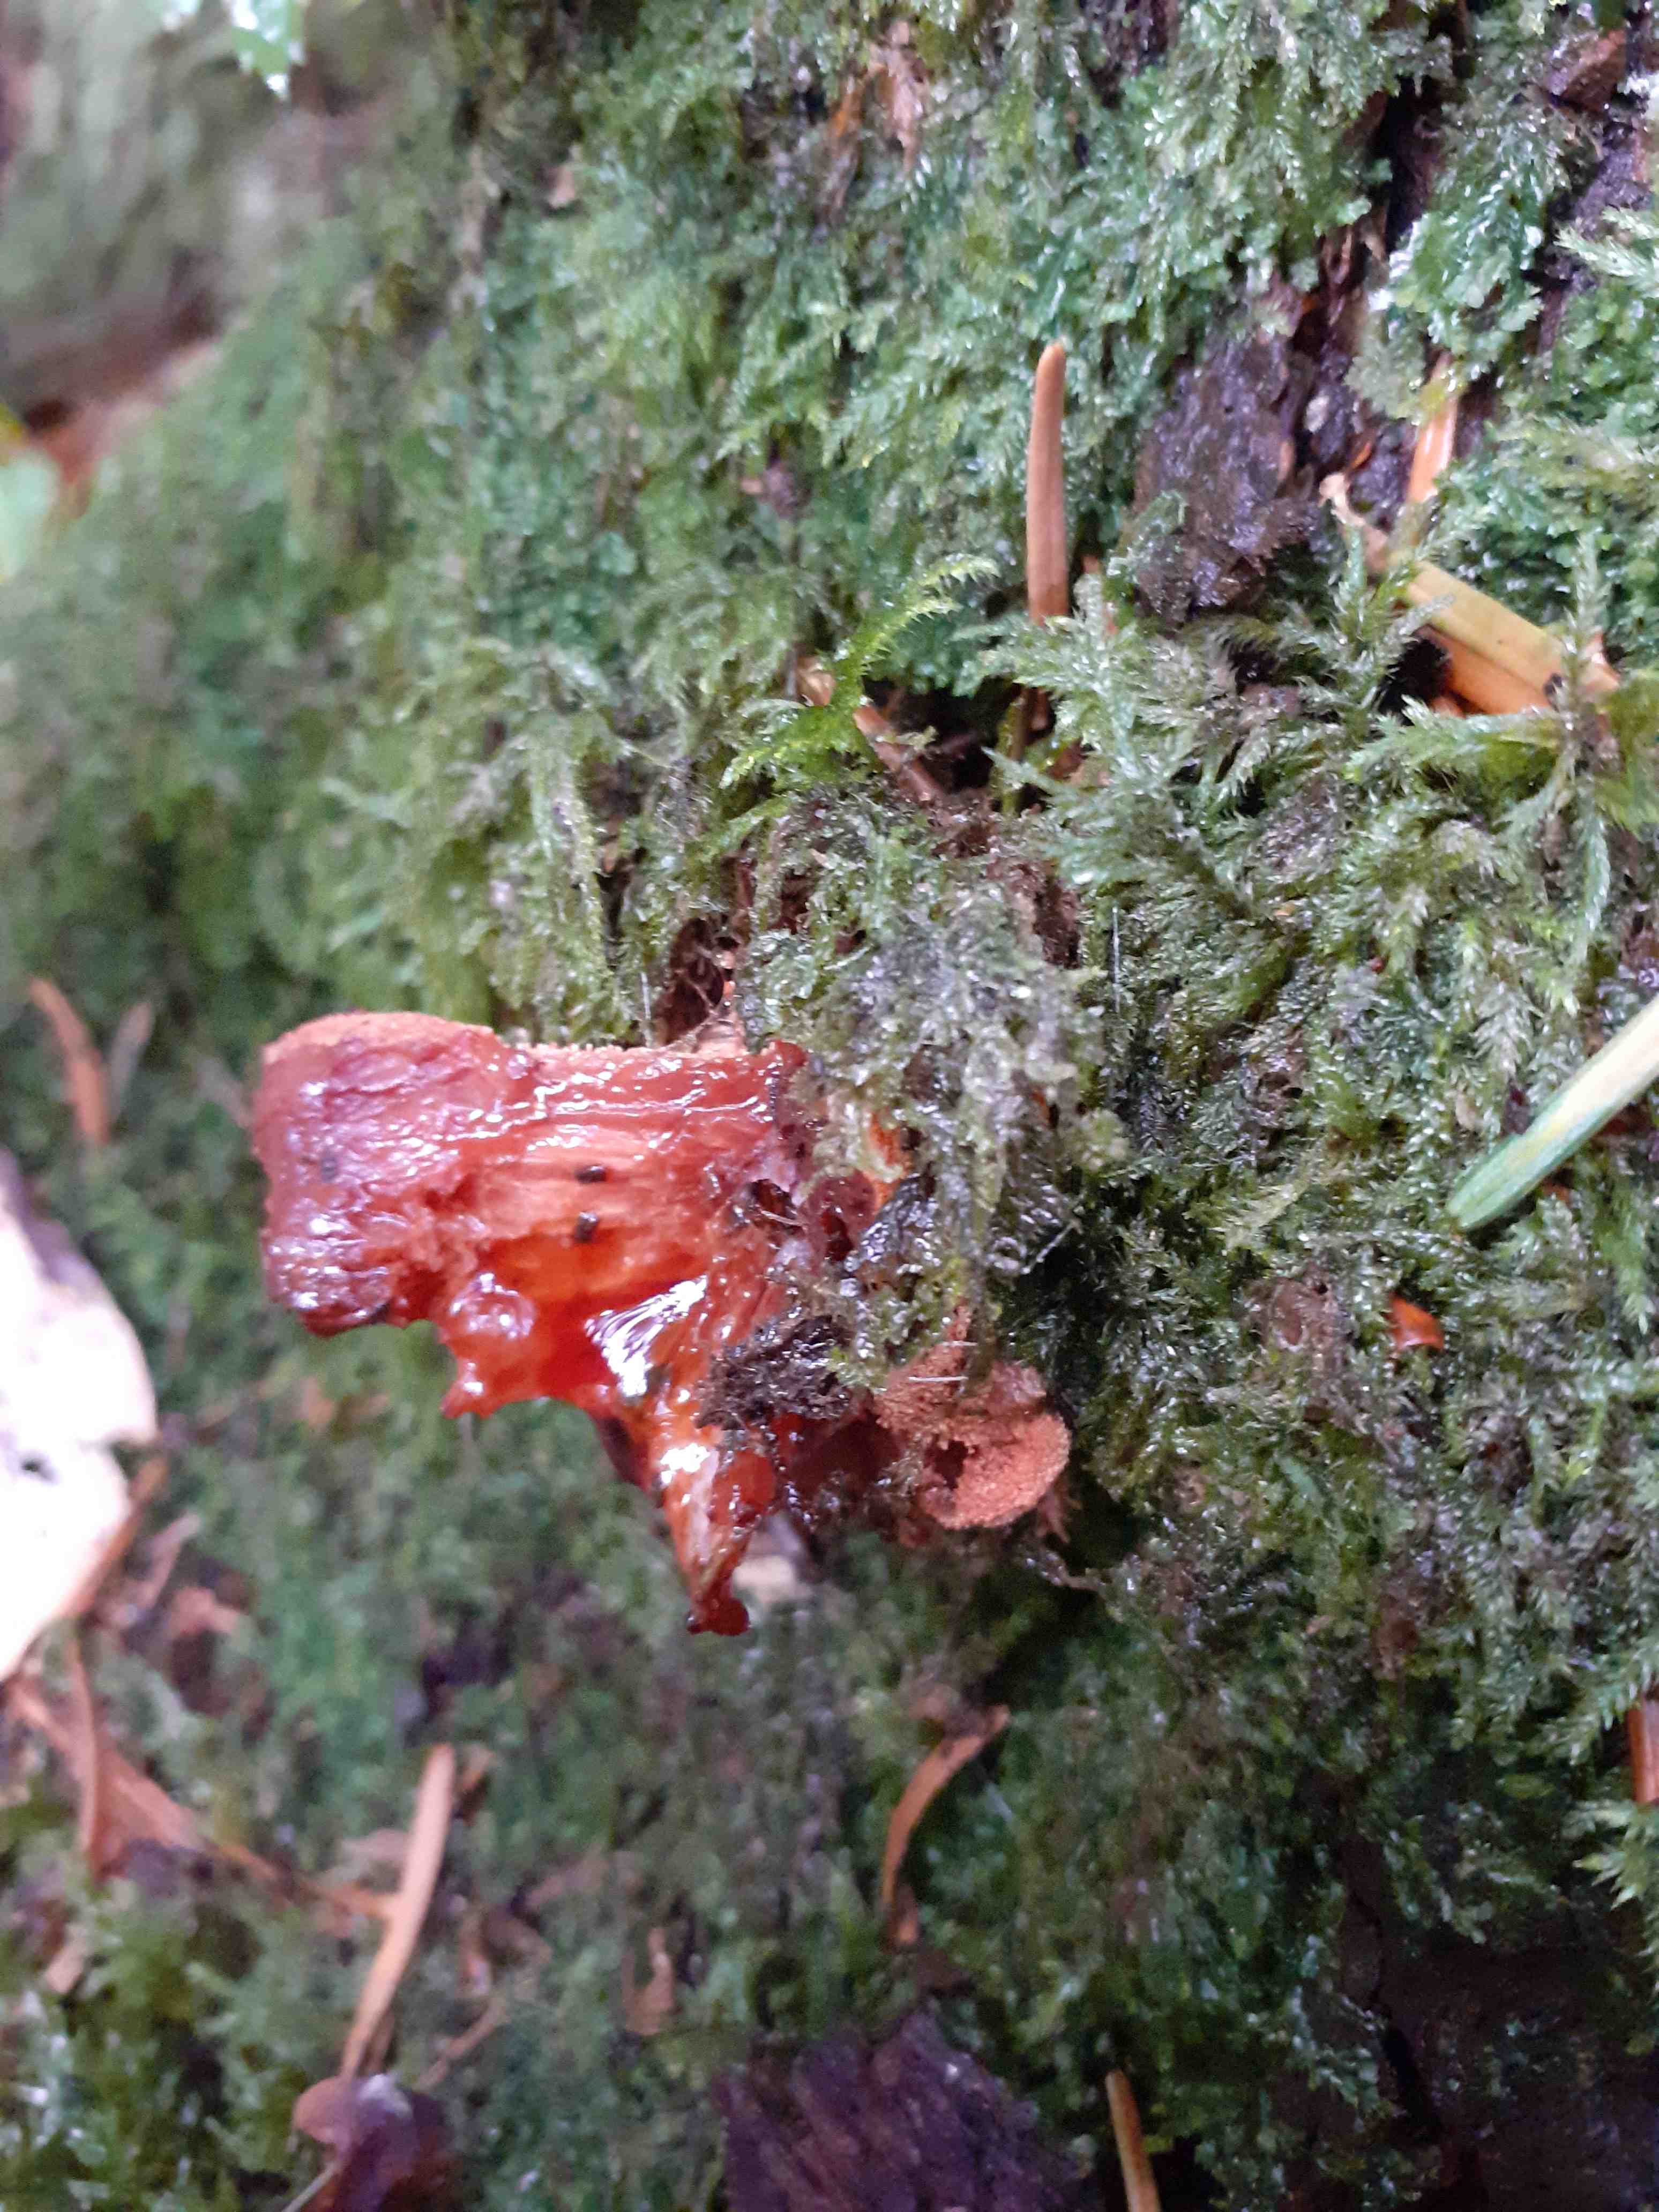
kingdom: Fungi
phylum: Basidiomycota
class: Agaricomycetes
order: Agaricales
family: Fistulinaceae
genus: Fistulina
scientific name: Fistulina hepatica
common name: oksetunge
